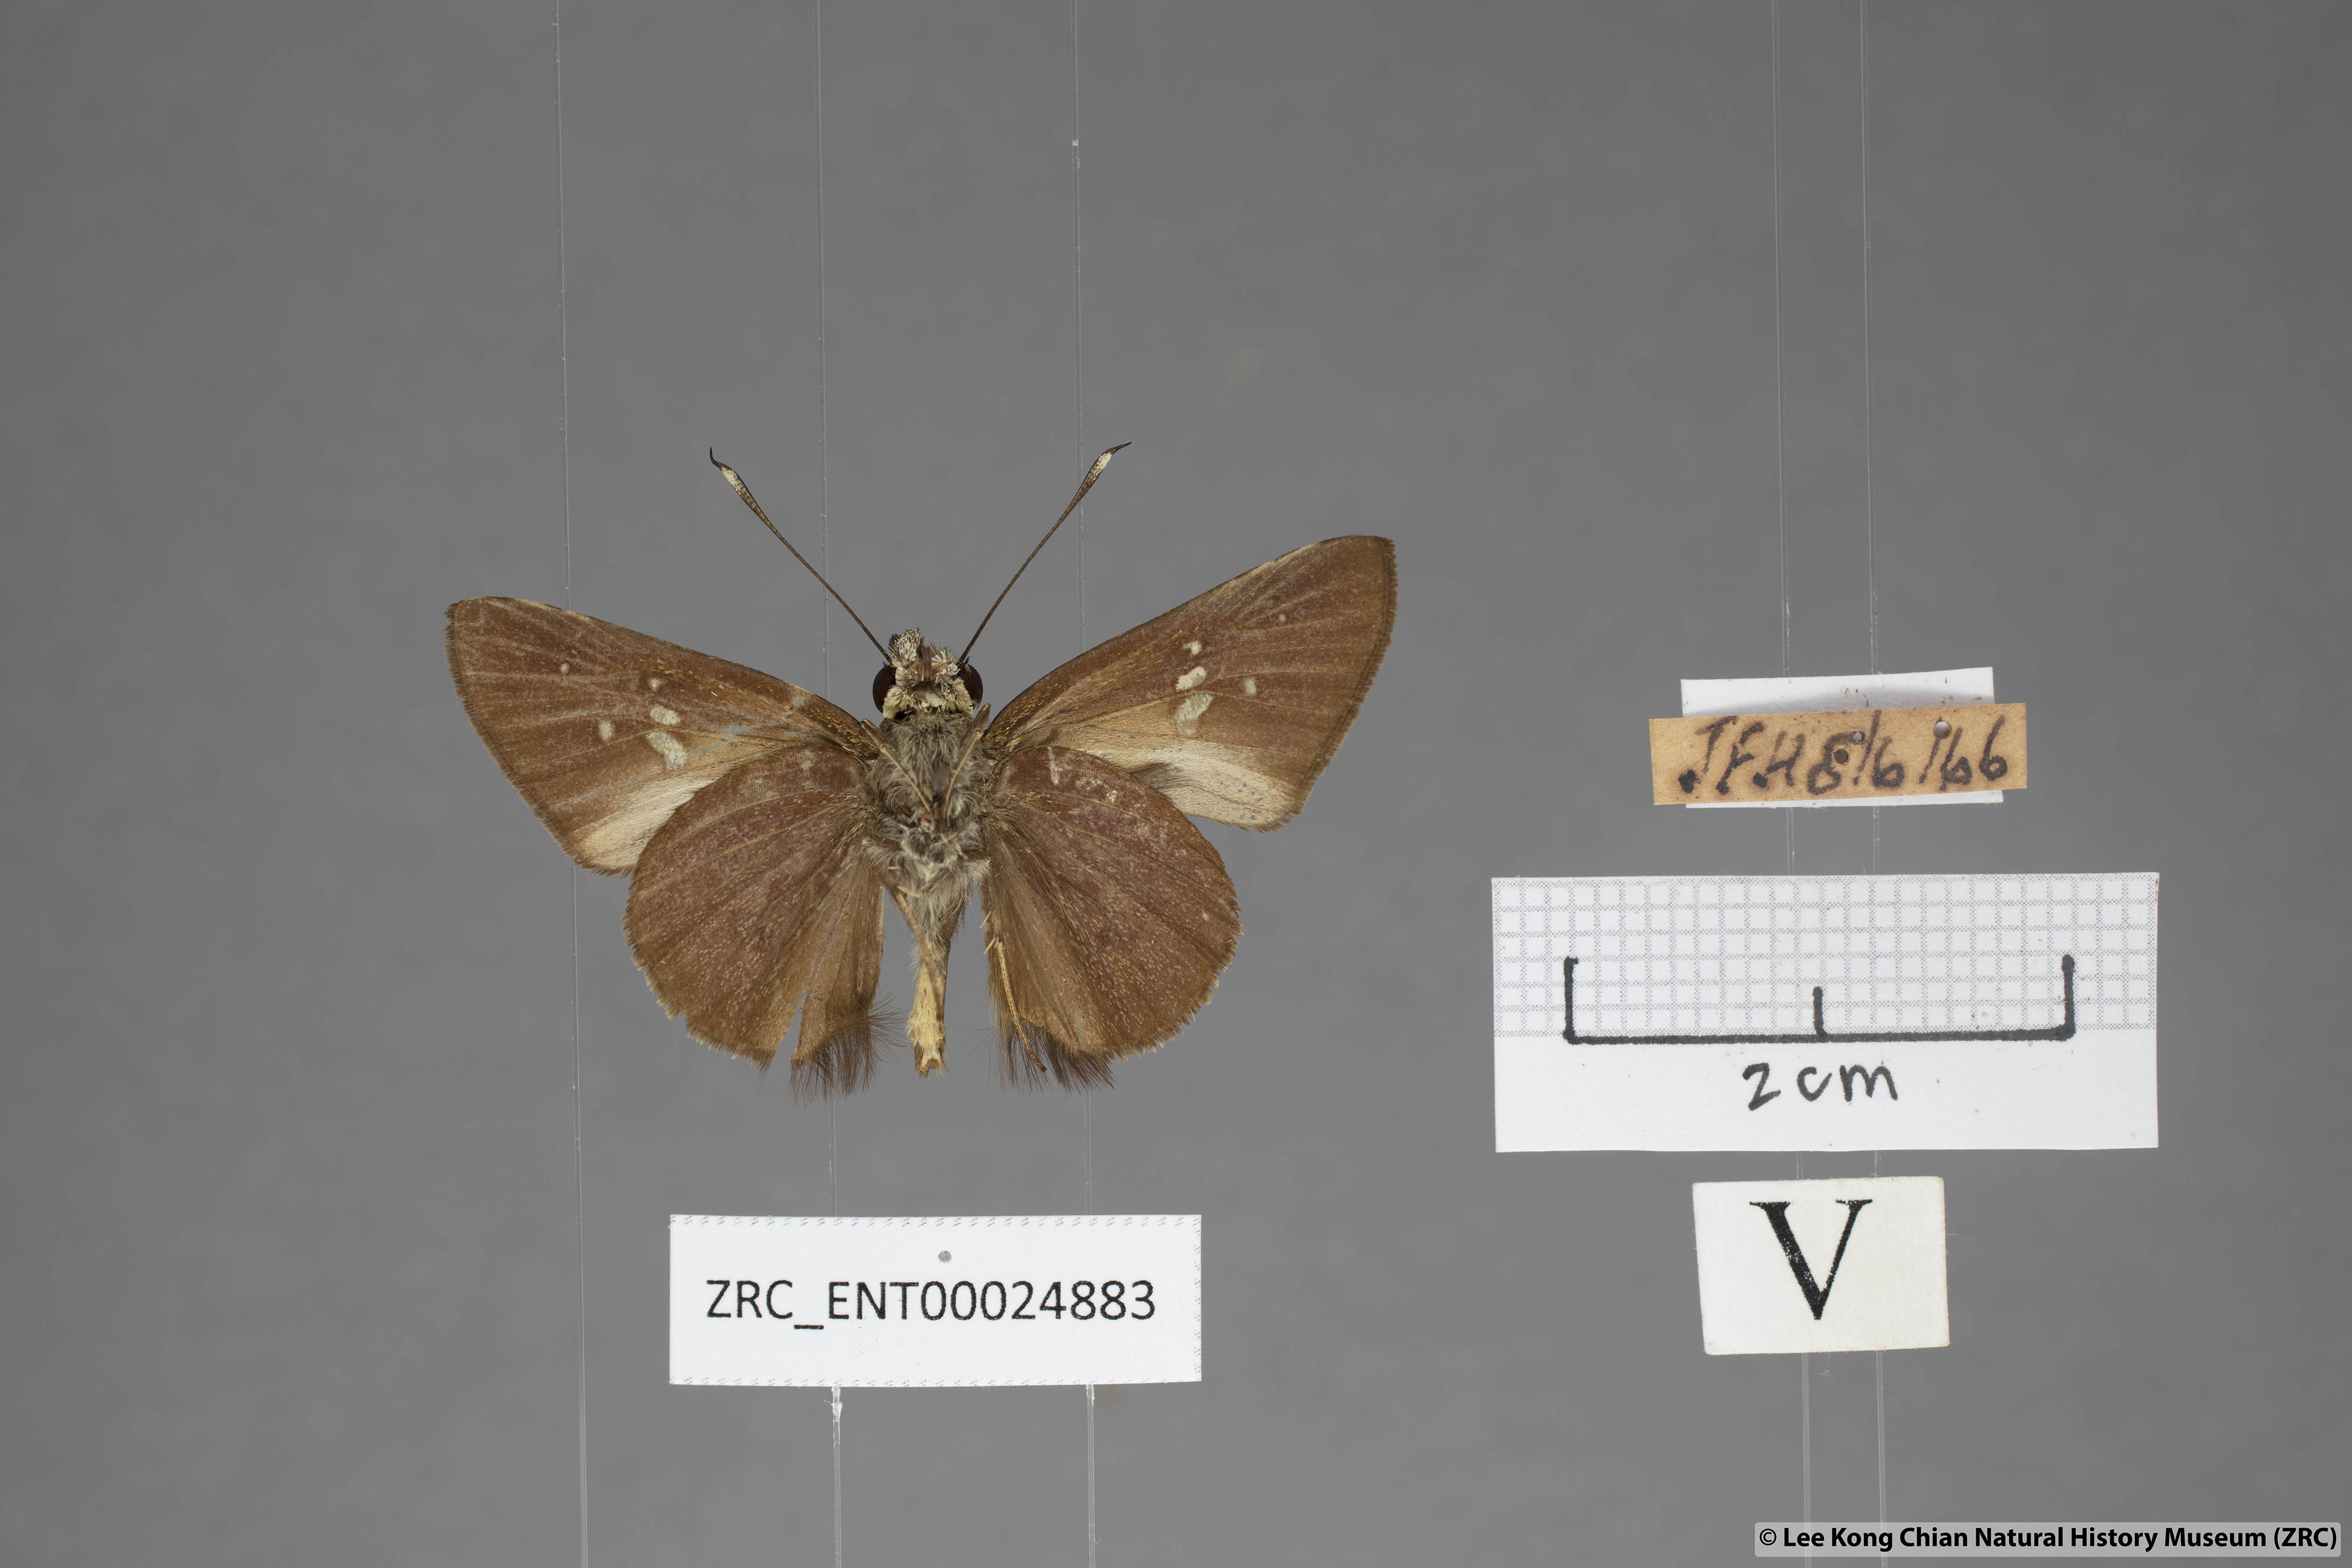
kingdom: Animalia
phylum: Arthropoda
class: Insecta
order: Lepidoptera
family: Hesperiidae
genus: Isma
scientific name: Isma protoclea
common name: Bicolour long-horned flitter
